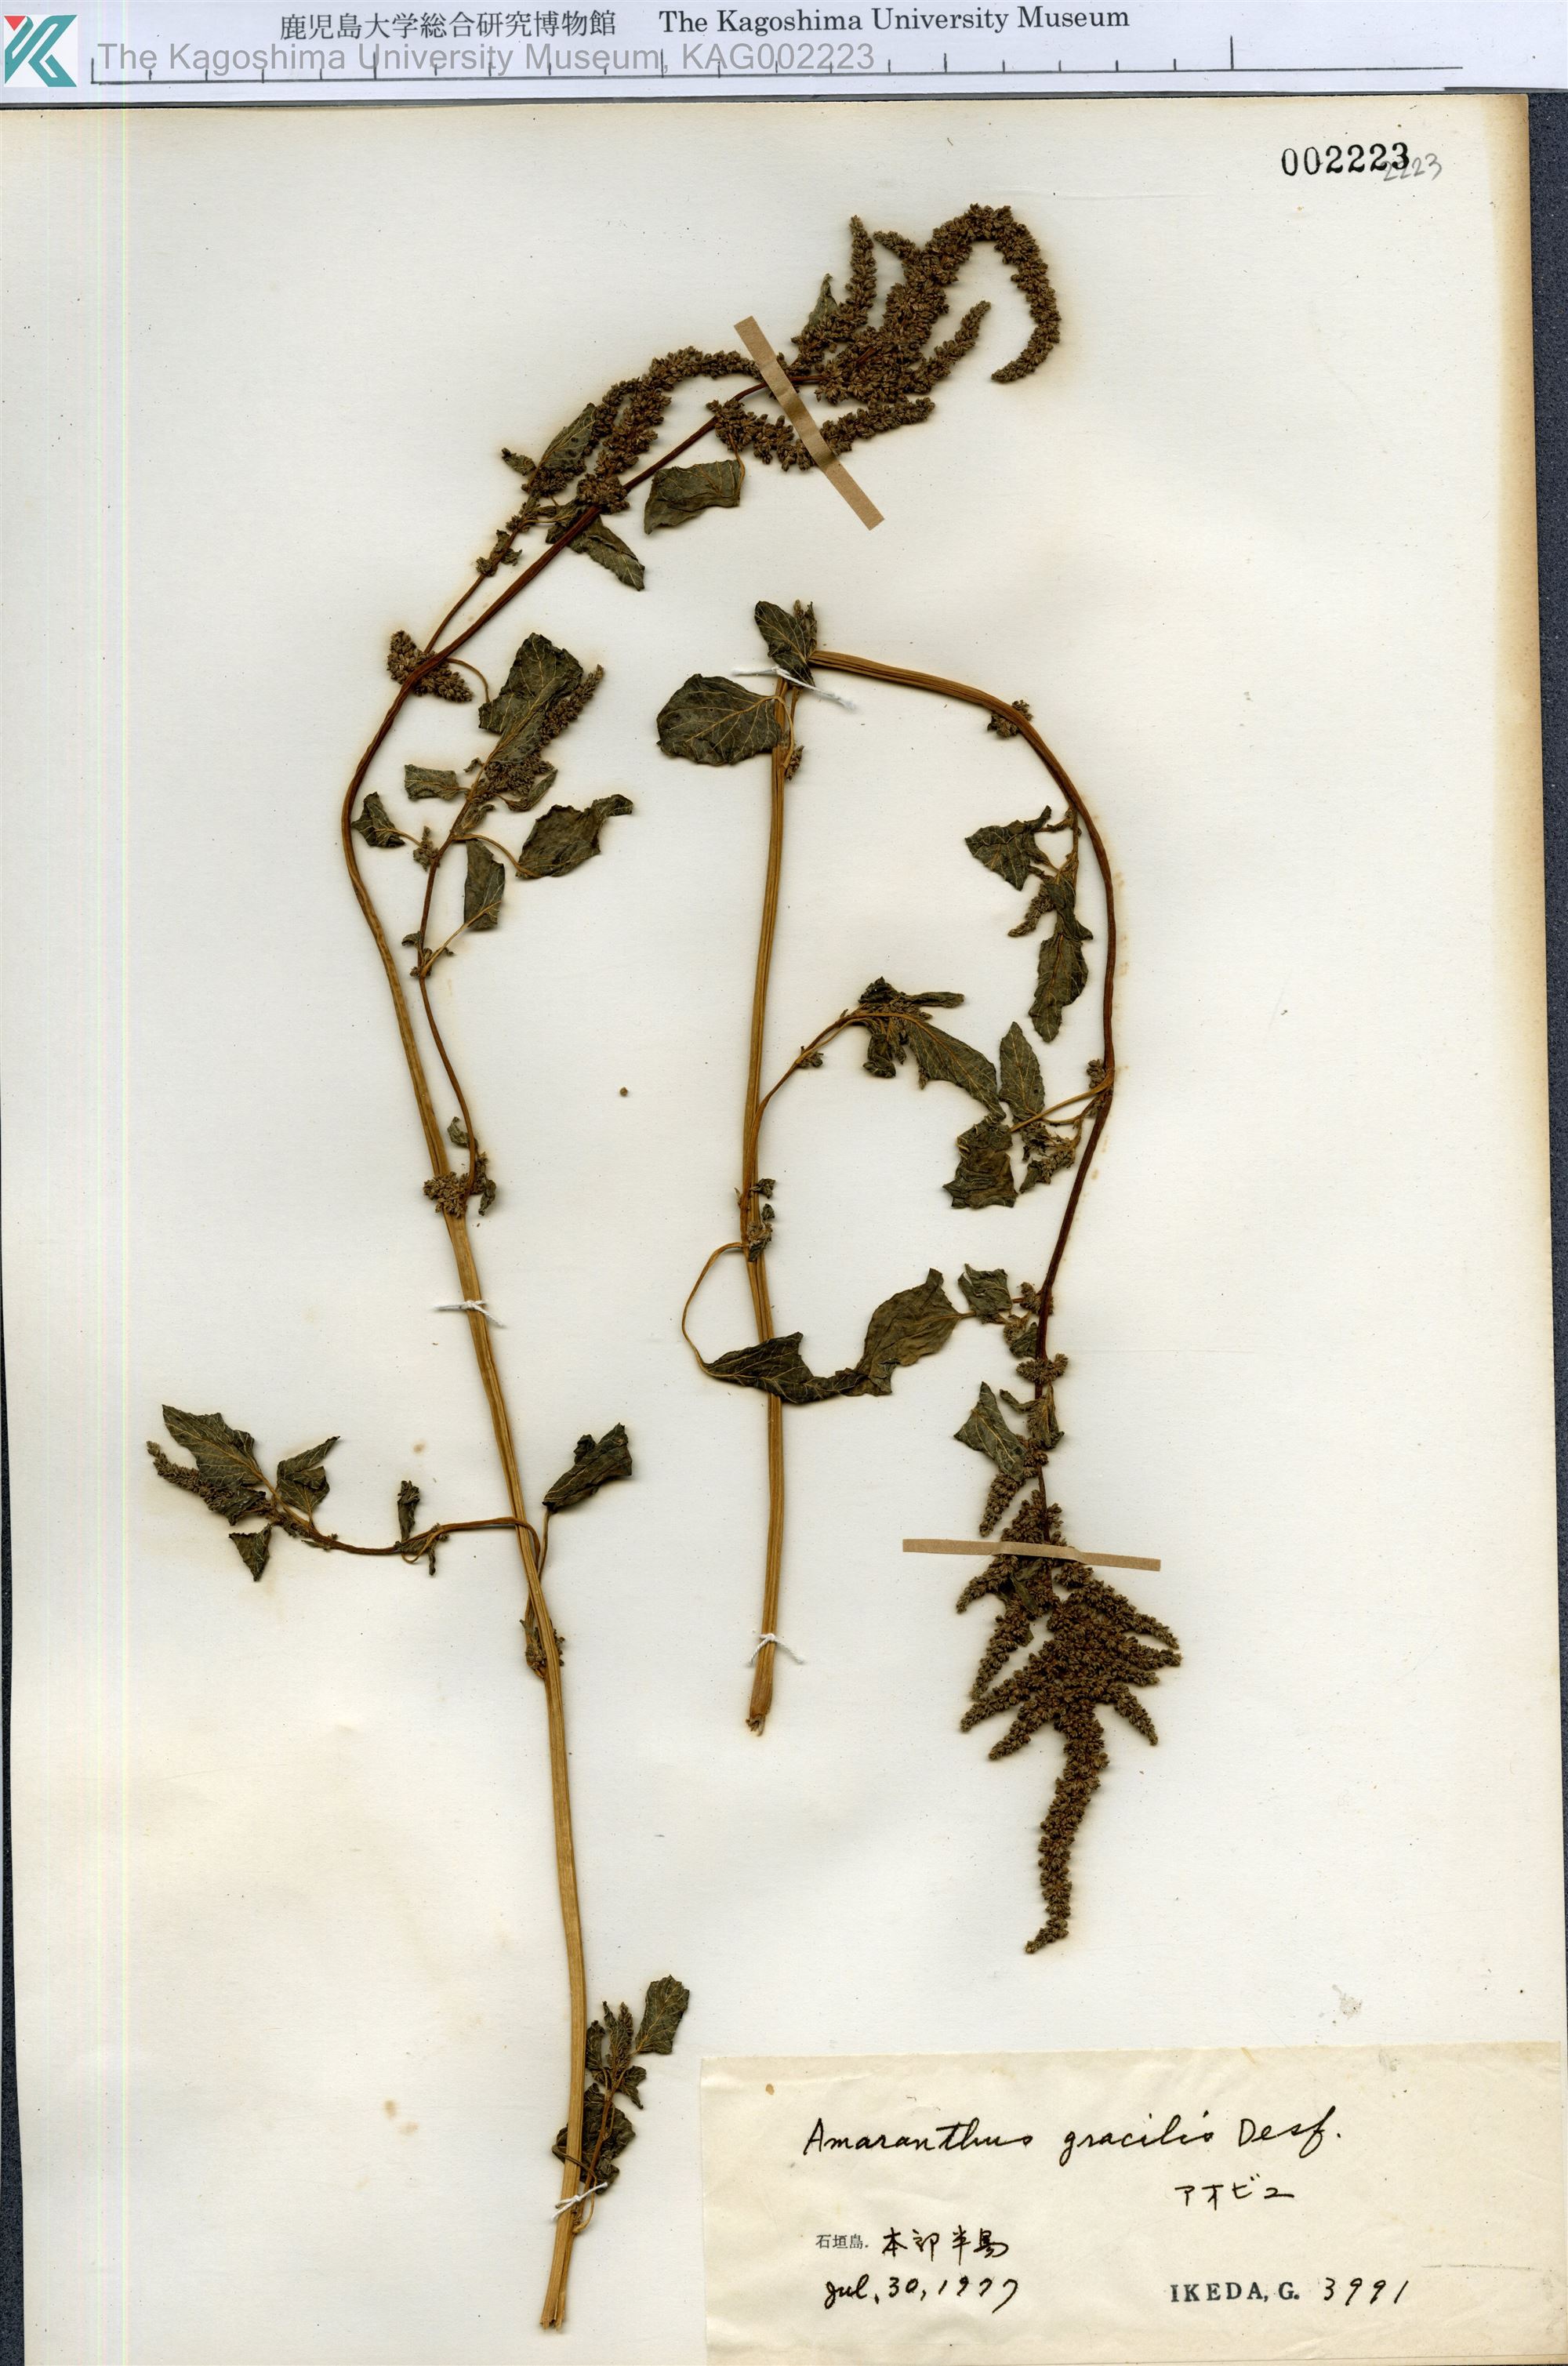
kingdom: Plantae
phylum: Tracheophyta
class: Magnoliopsida
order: Caryophyllales
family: Amaranthaceae
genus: Amaranthus
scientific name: Amaranthus viridis
